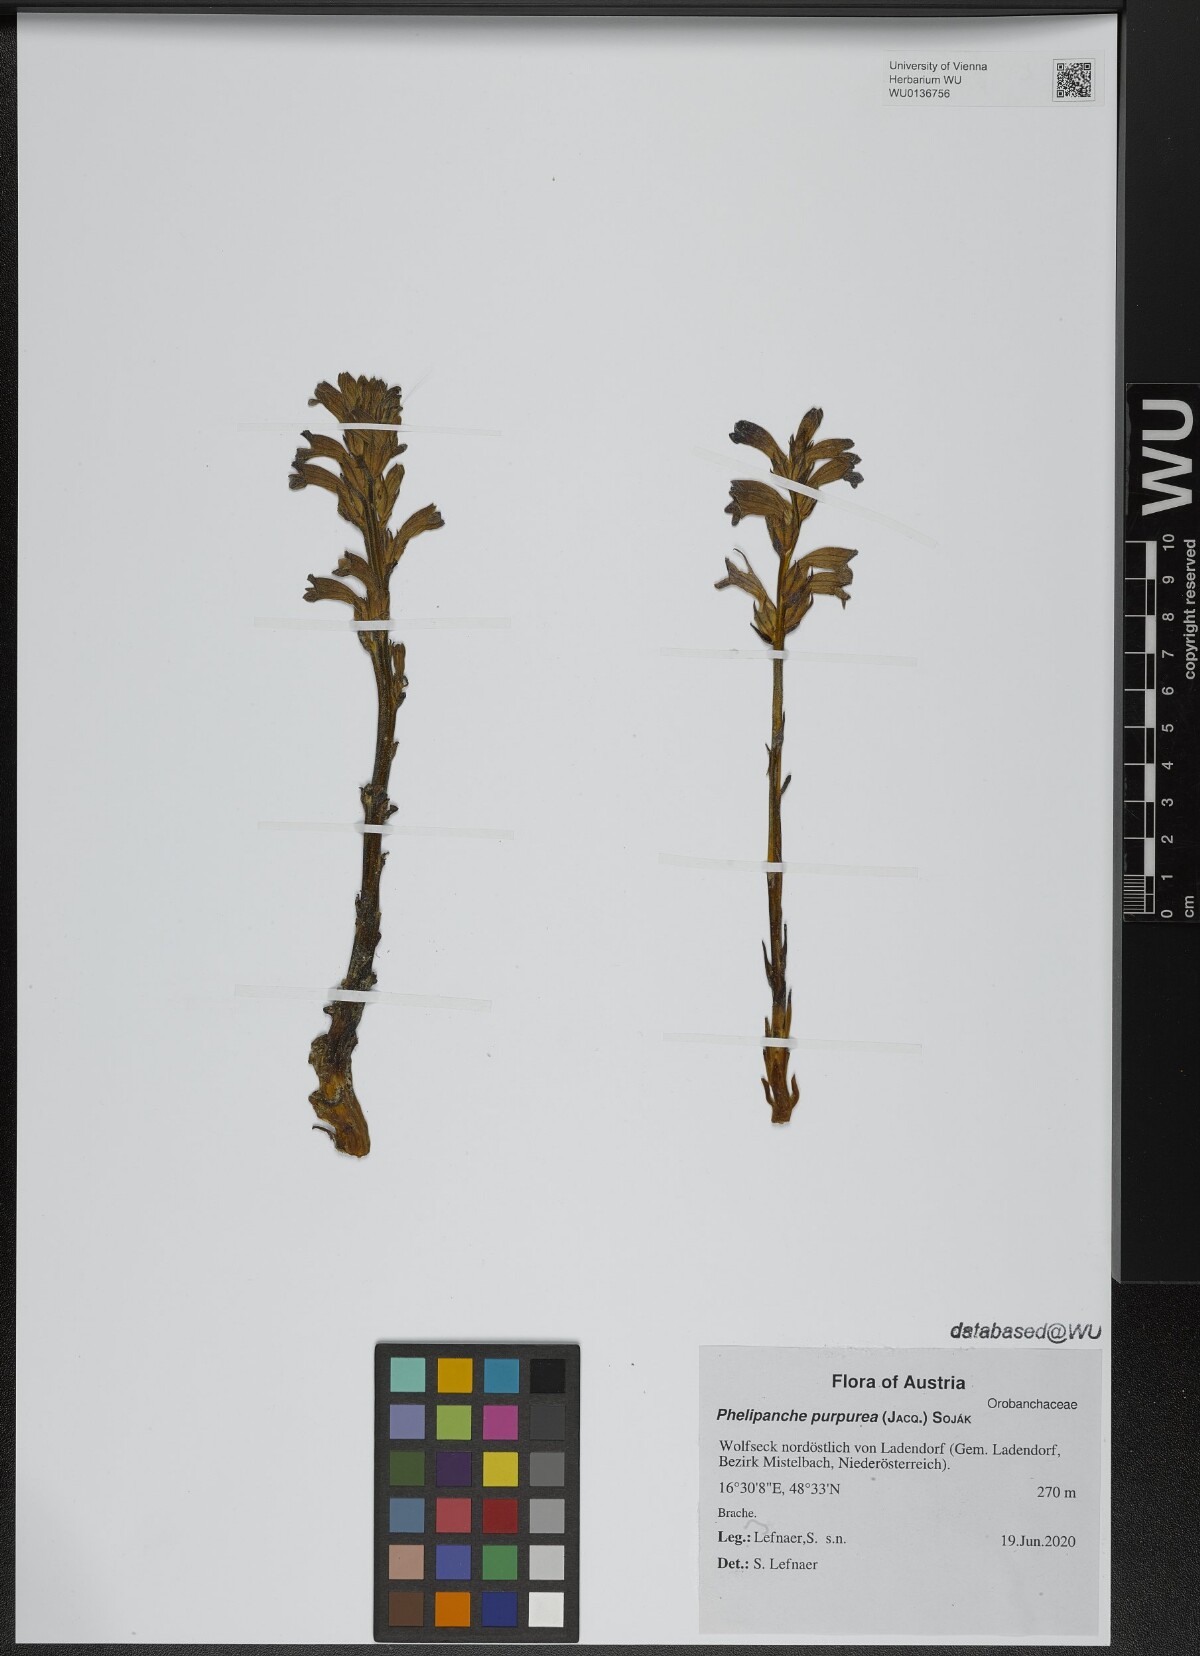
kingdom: Plantae
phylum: Tracheophyta
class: Magnoliopsida
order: Lamiales
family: Orobanchaceae
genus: Phelipanche
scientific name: Phelipanche purpurea
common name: Purple broomrape
